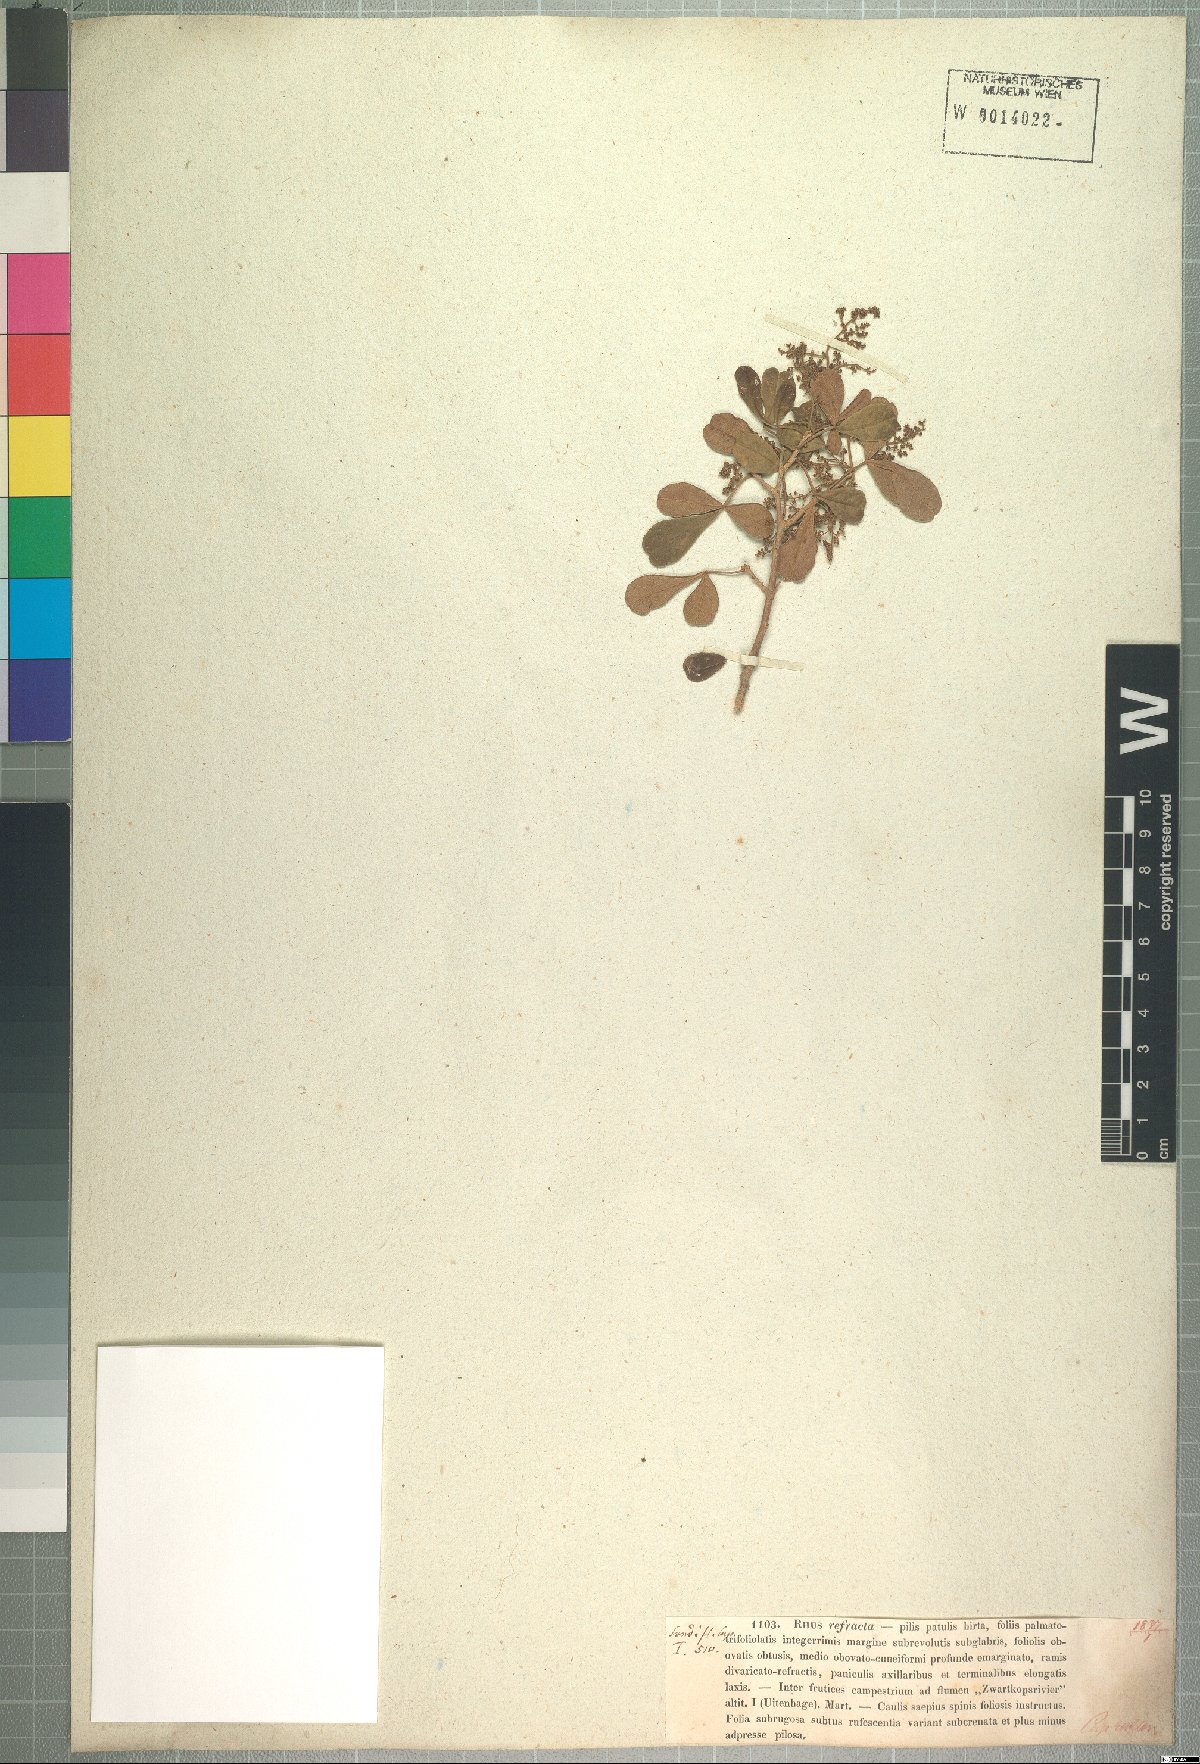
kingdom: Plantae
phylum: Tracheophyta
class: Magnoliopsida
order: Sapindales
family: Anacardiaceae
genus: Searsia
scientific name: Searsia refracta
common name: Thorny crow-berry
